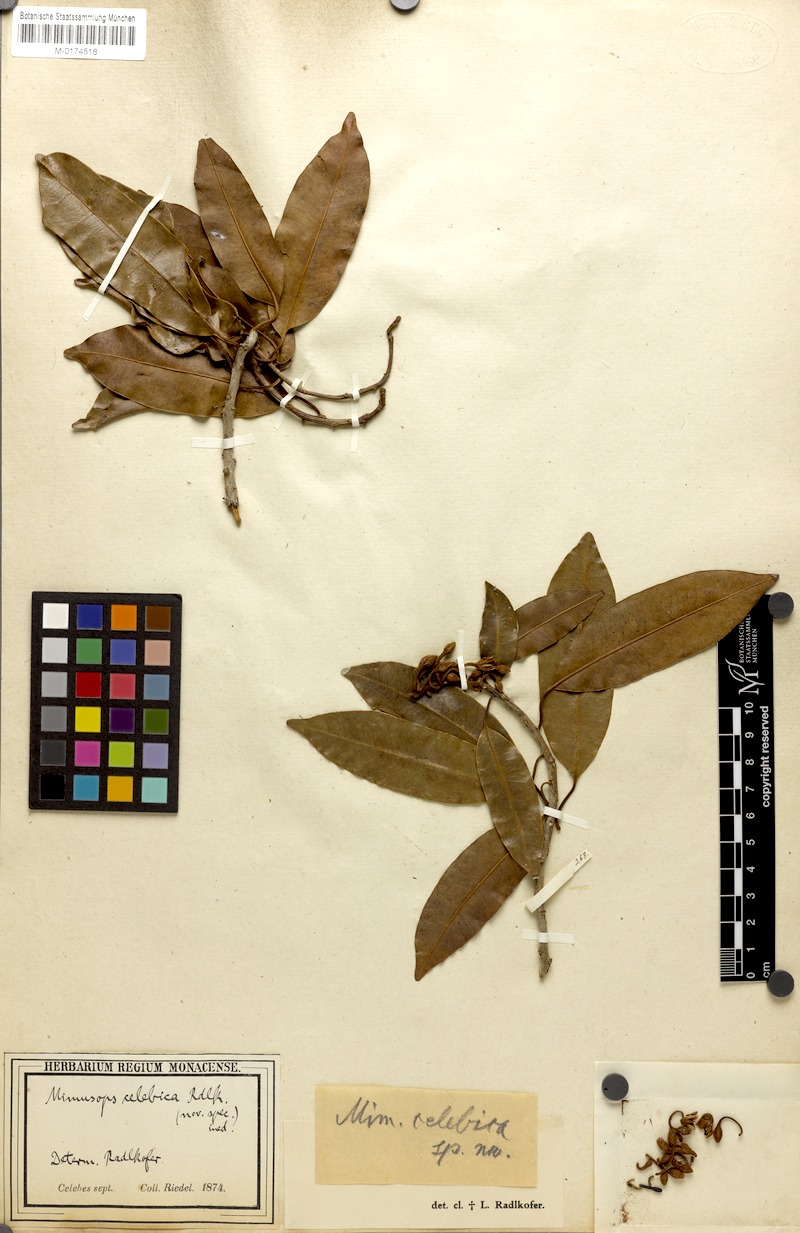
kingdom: Plantae
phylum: Tracheophyta
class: Magnoliopsida
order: Ericales
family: Sapotaceae
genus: Mimusops
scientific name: Mimusops
